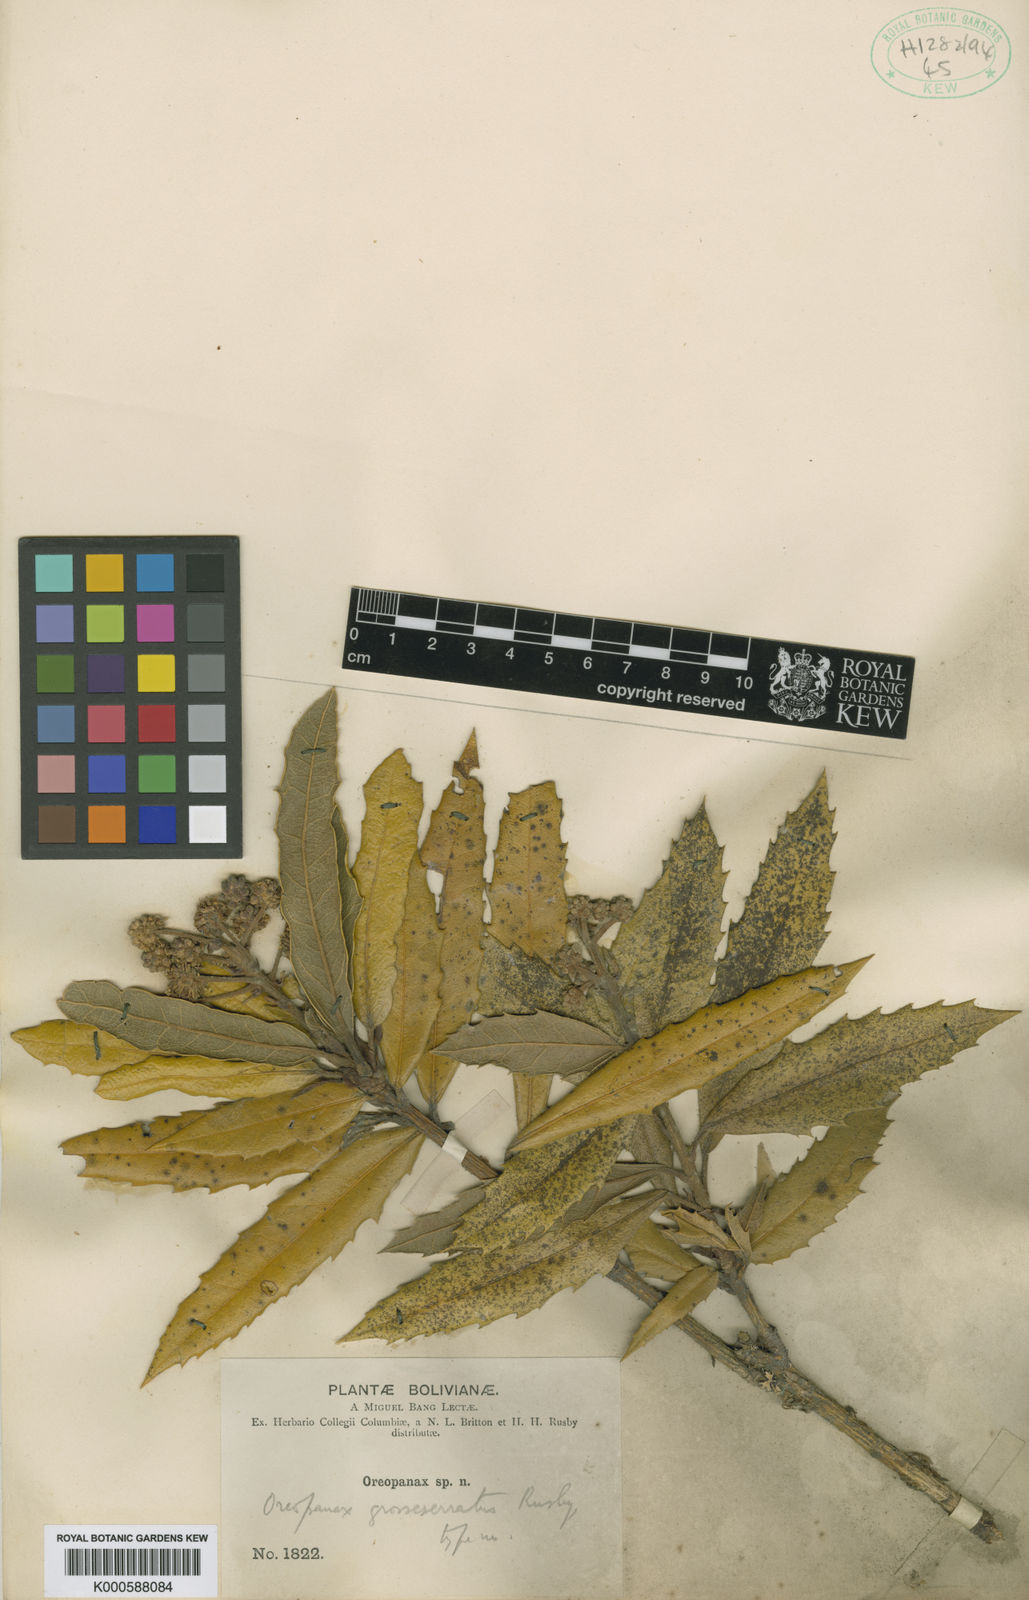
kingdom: Plantae
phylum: Tracheophyta
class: Magnoliopsida
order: Apiales
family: Araliaceae
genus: Oreopanax
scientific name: Oreopanax fulvus
